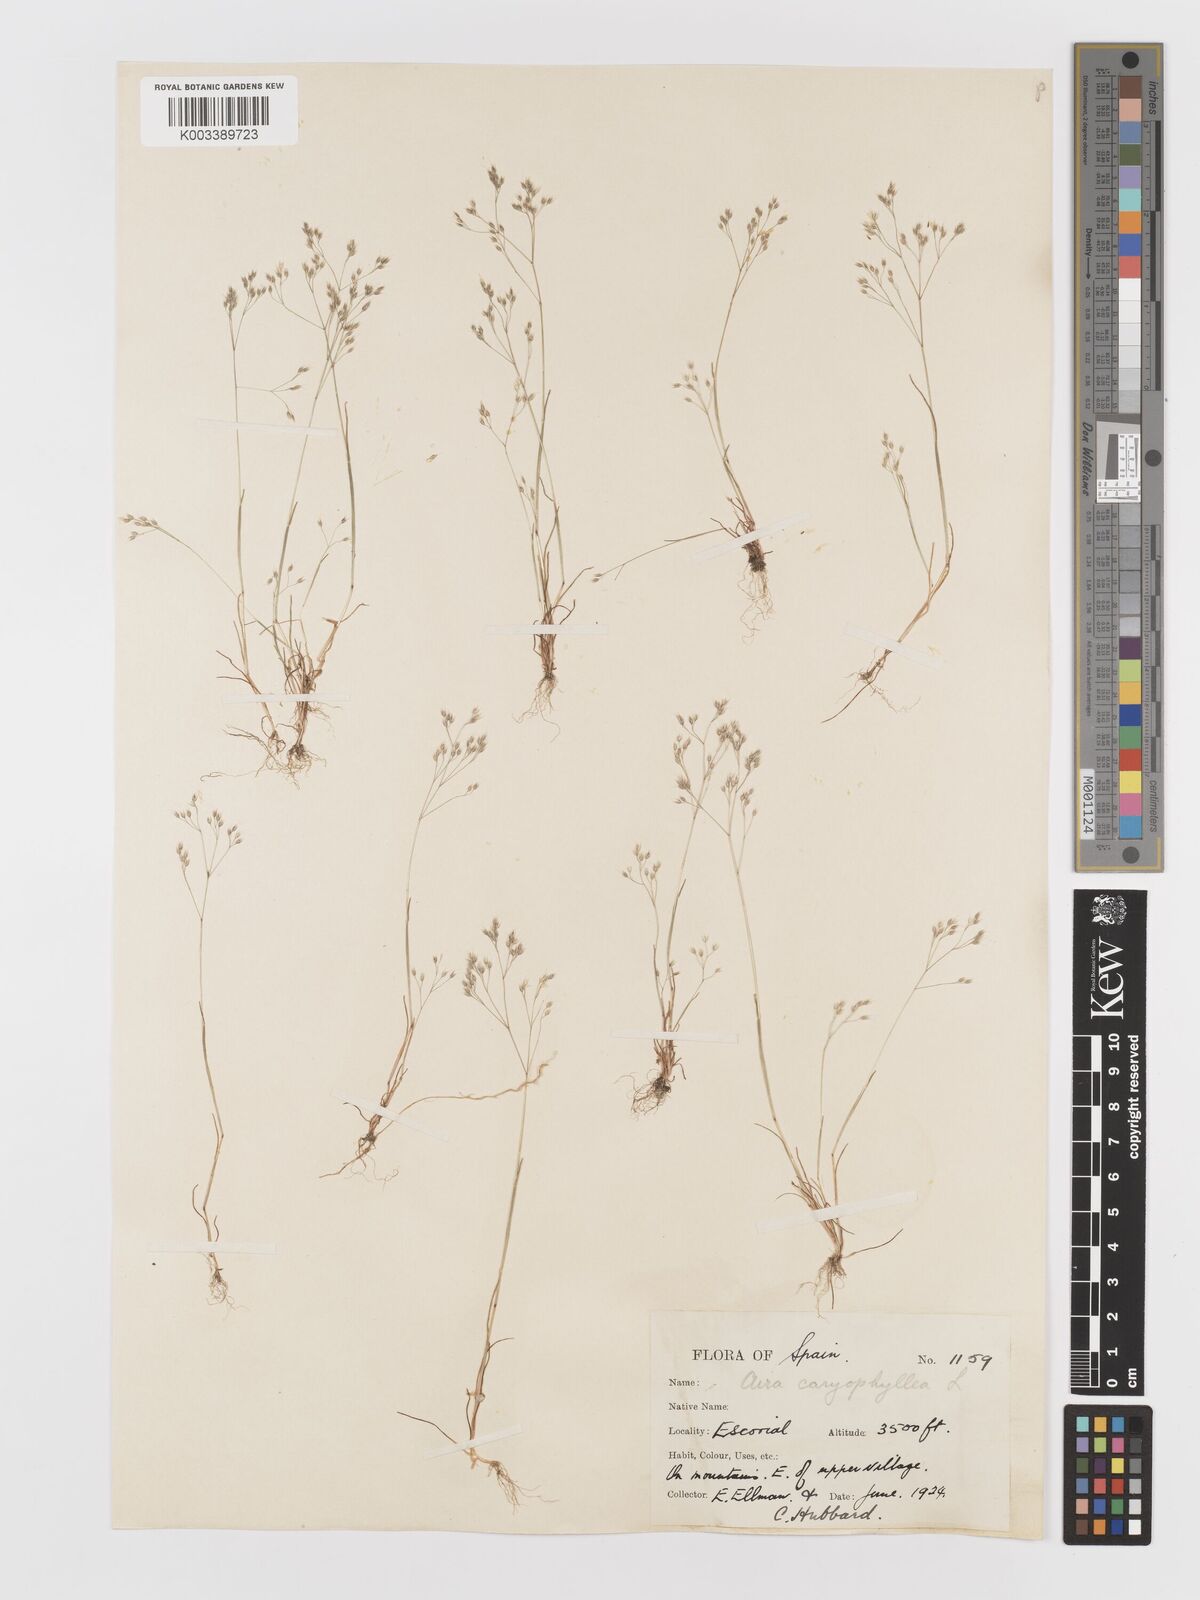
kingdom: Plantae
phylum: Tracheophyta
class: Liliopsida
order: Poales
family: Poaceae
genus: Aira
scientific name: Aira caryophyllea
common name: Silver hairgrass
